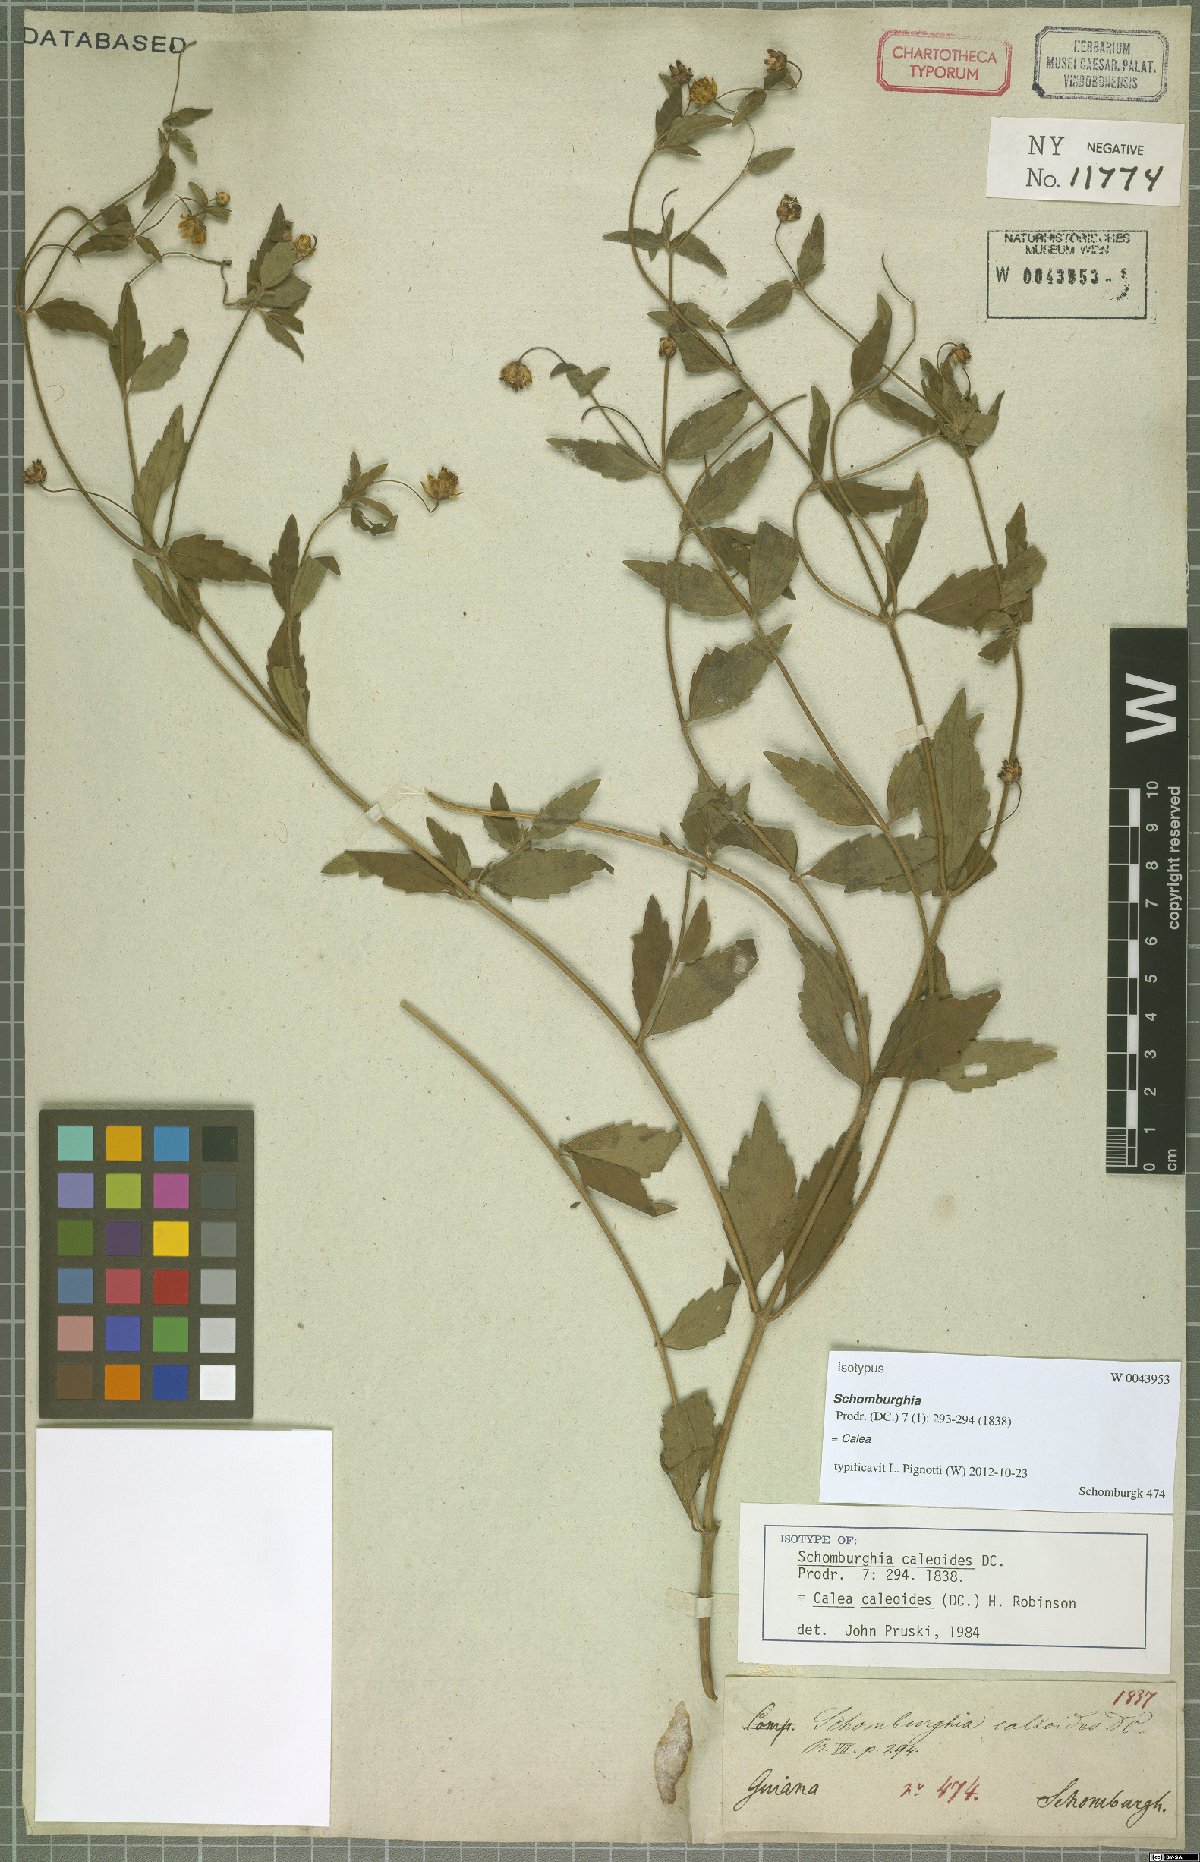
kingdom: Plantae
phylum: Tracheophyta
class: Magnoliopsida
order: Asterales
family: Asteraceae
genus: Calea
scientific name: Calea caleoides
